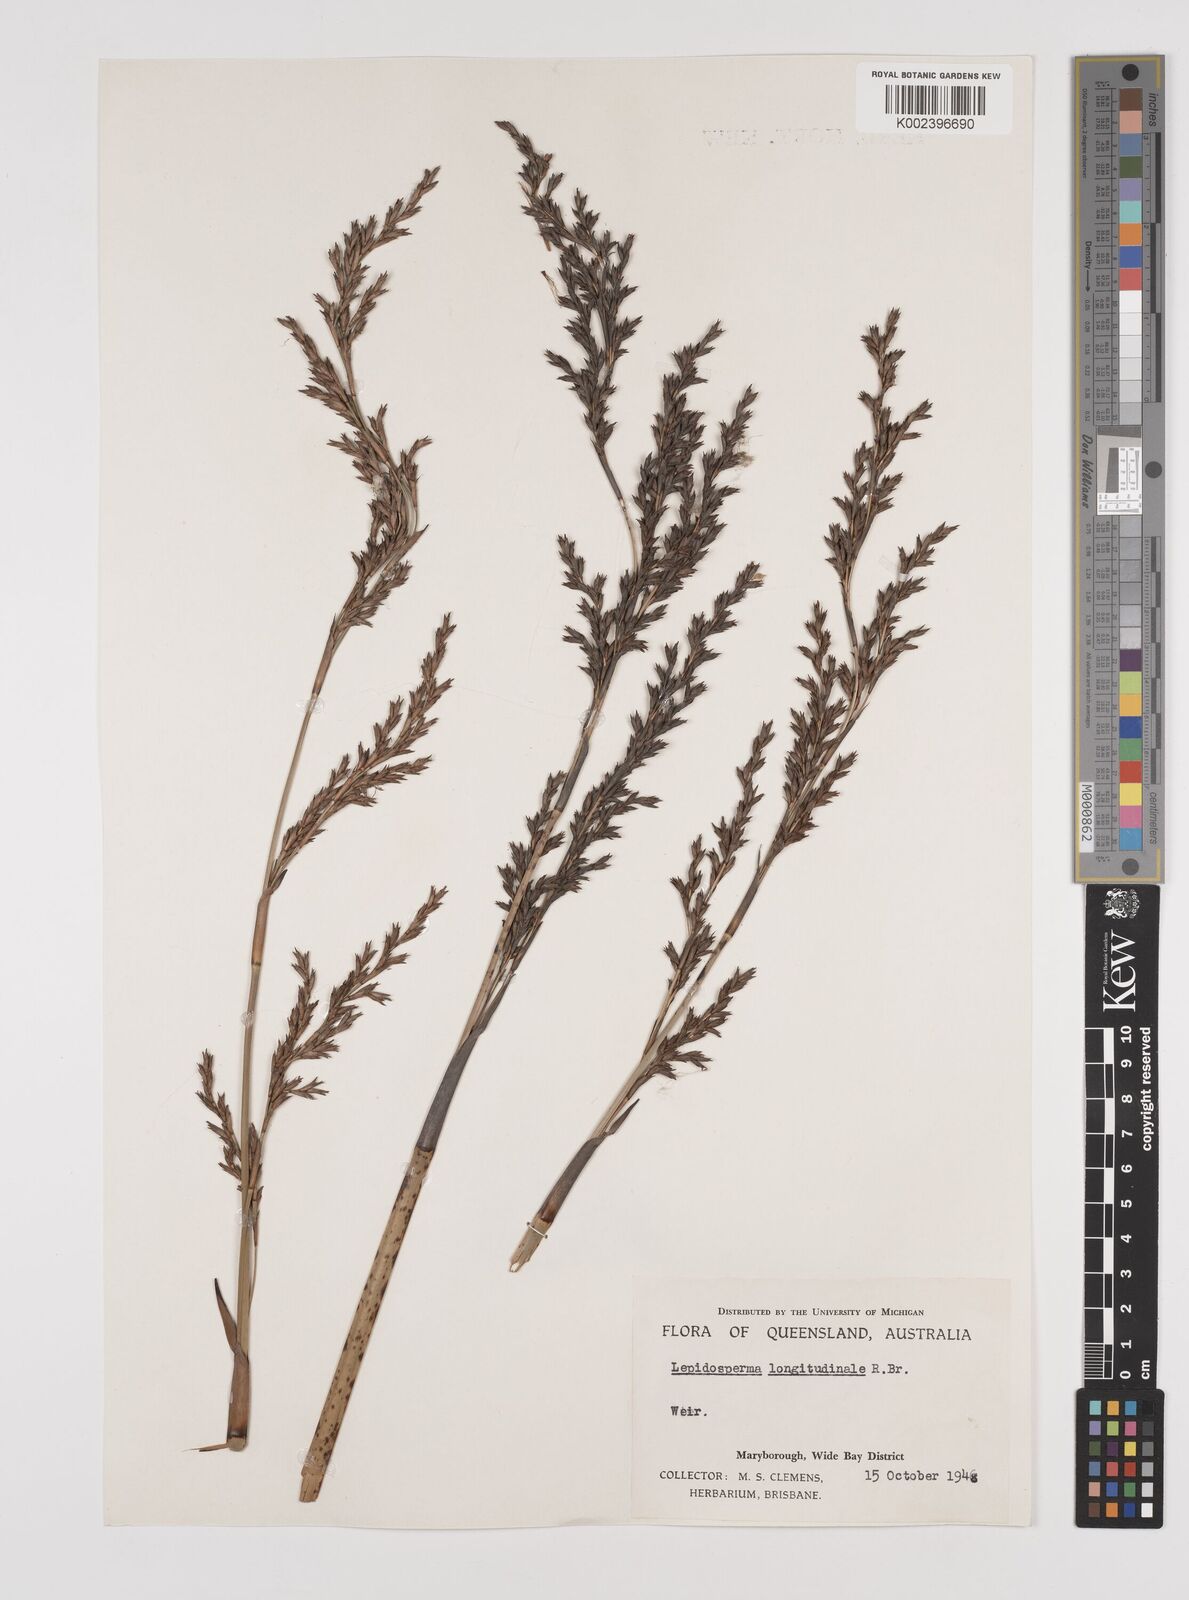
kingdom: Plantae
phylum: Tracheophyta
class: Liliopsida
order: Poales
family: Cyperaceae
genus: Lepidosperma
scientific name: Lepidosperma longitudinale
